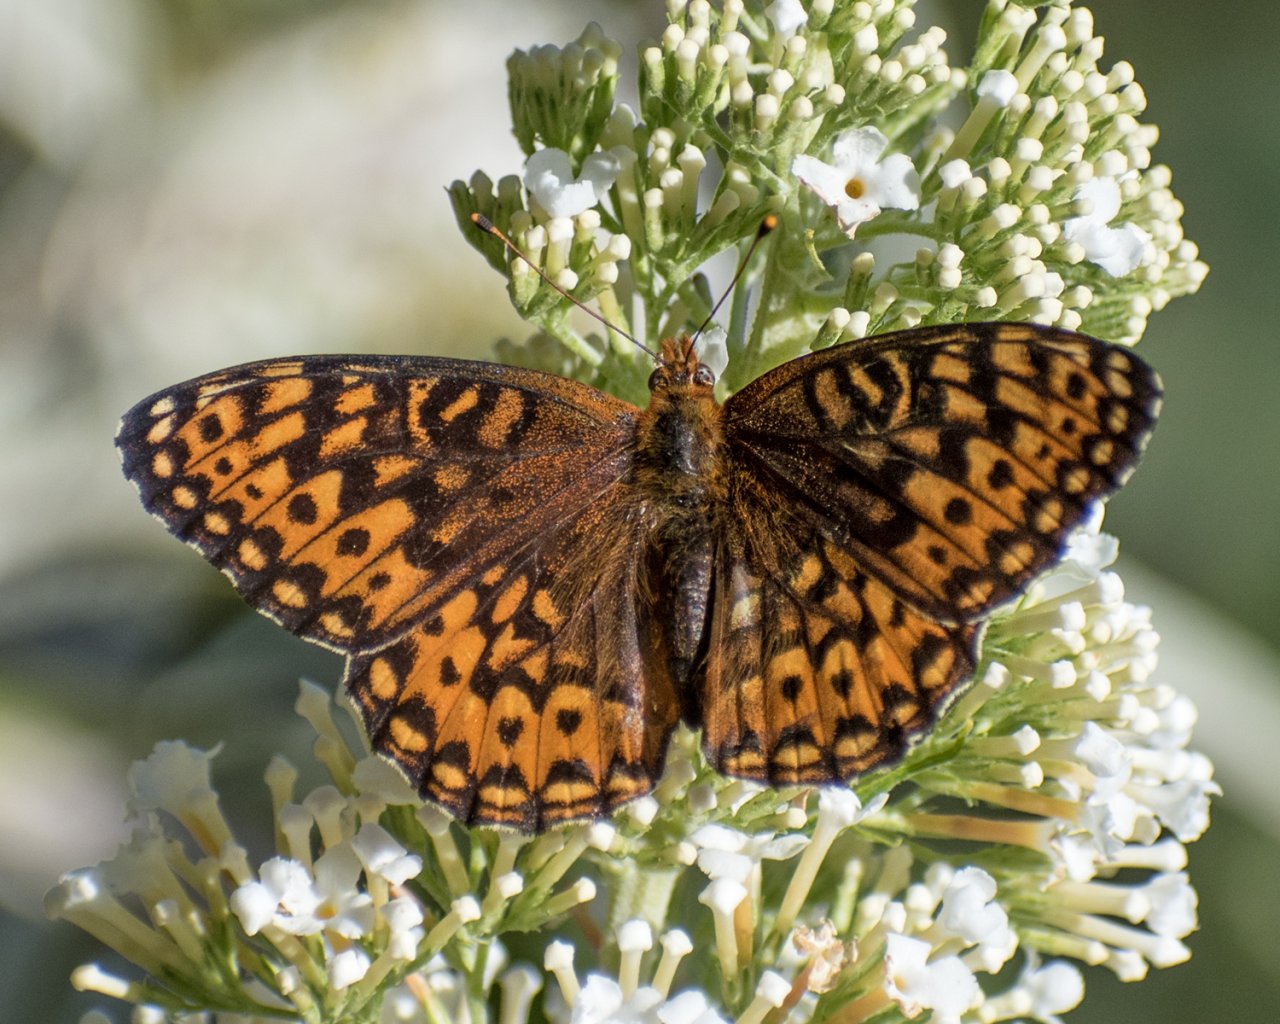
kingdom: Animalia
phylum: Arthropoda
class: Insecta
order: Lepidoptera
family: Nymphalidae
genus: Speyeria
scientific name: Speyeria hydaspe
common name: Hydaspe Fritillary
